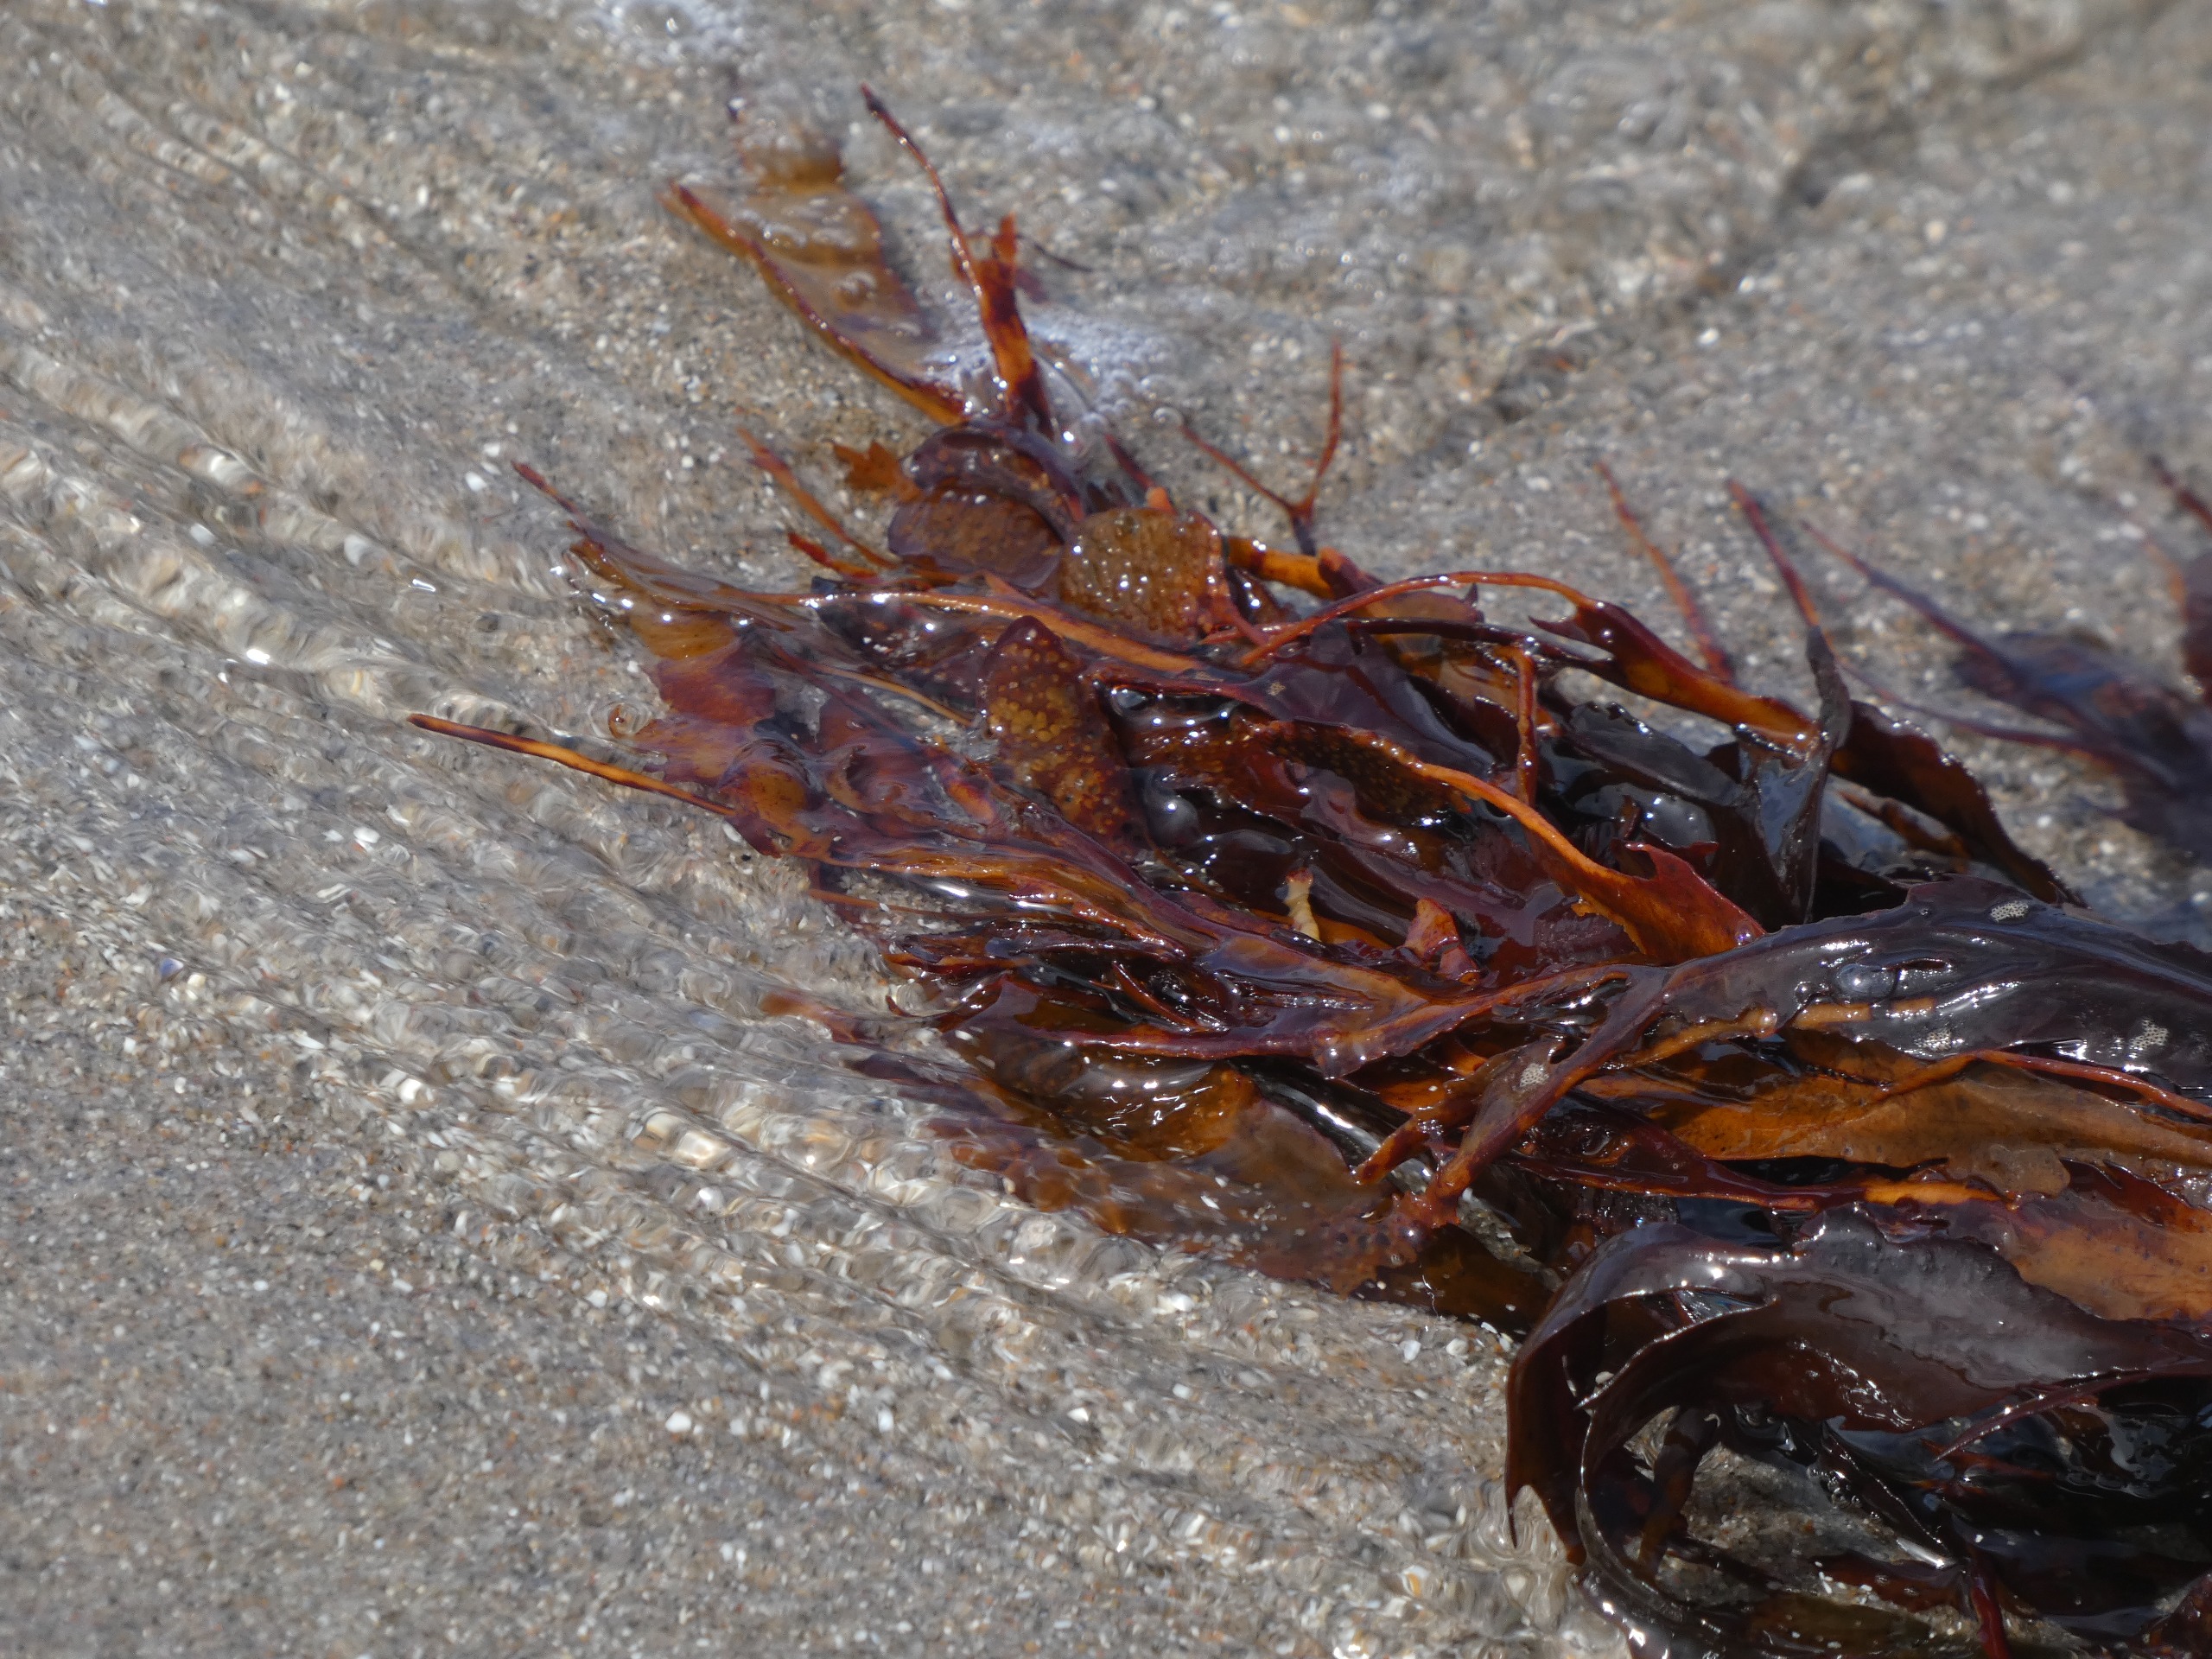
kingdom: Chromista
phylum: Ochrophyta
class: Phaeophyceae
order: Fucales
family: Fucaceae
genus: Fucus
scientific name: Fucus serratus
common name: Savtang
